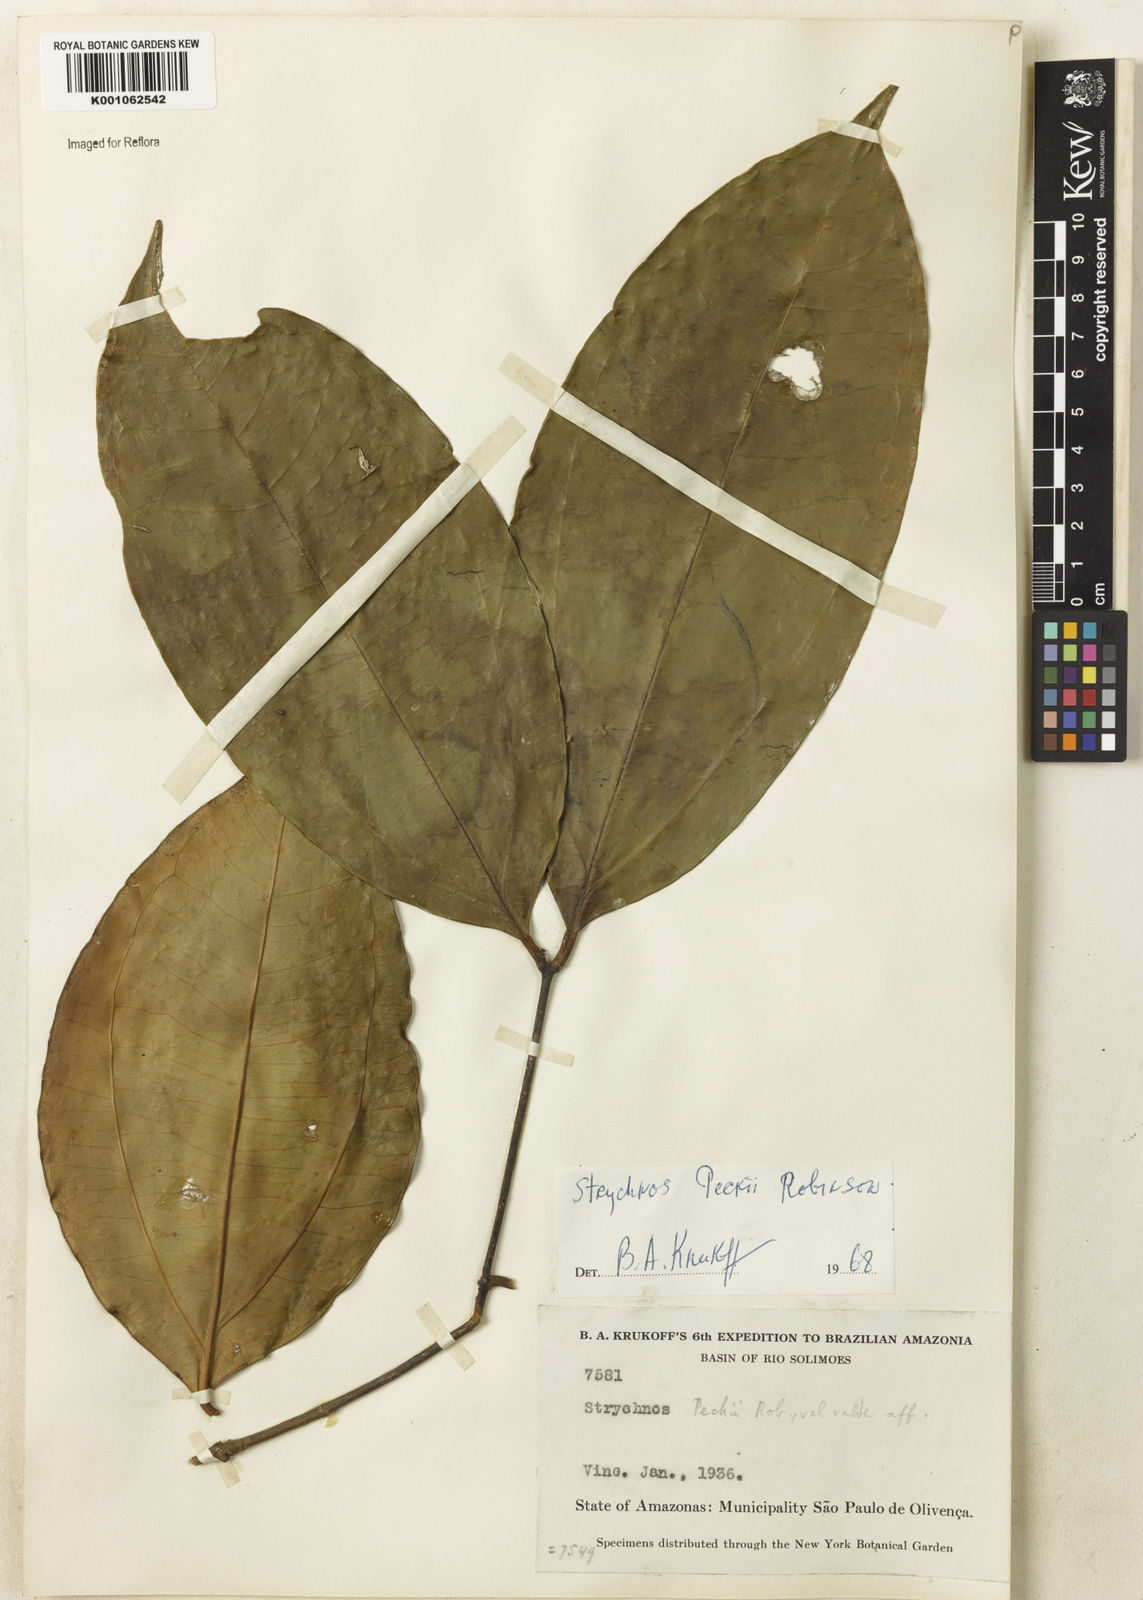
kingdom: Plantae
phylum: Tracheophyta
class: Magnoliopsida
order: Gentianales
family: Loganiaceae
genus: Strychnos
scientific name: Strychnos peckii
